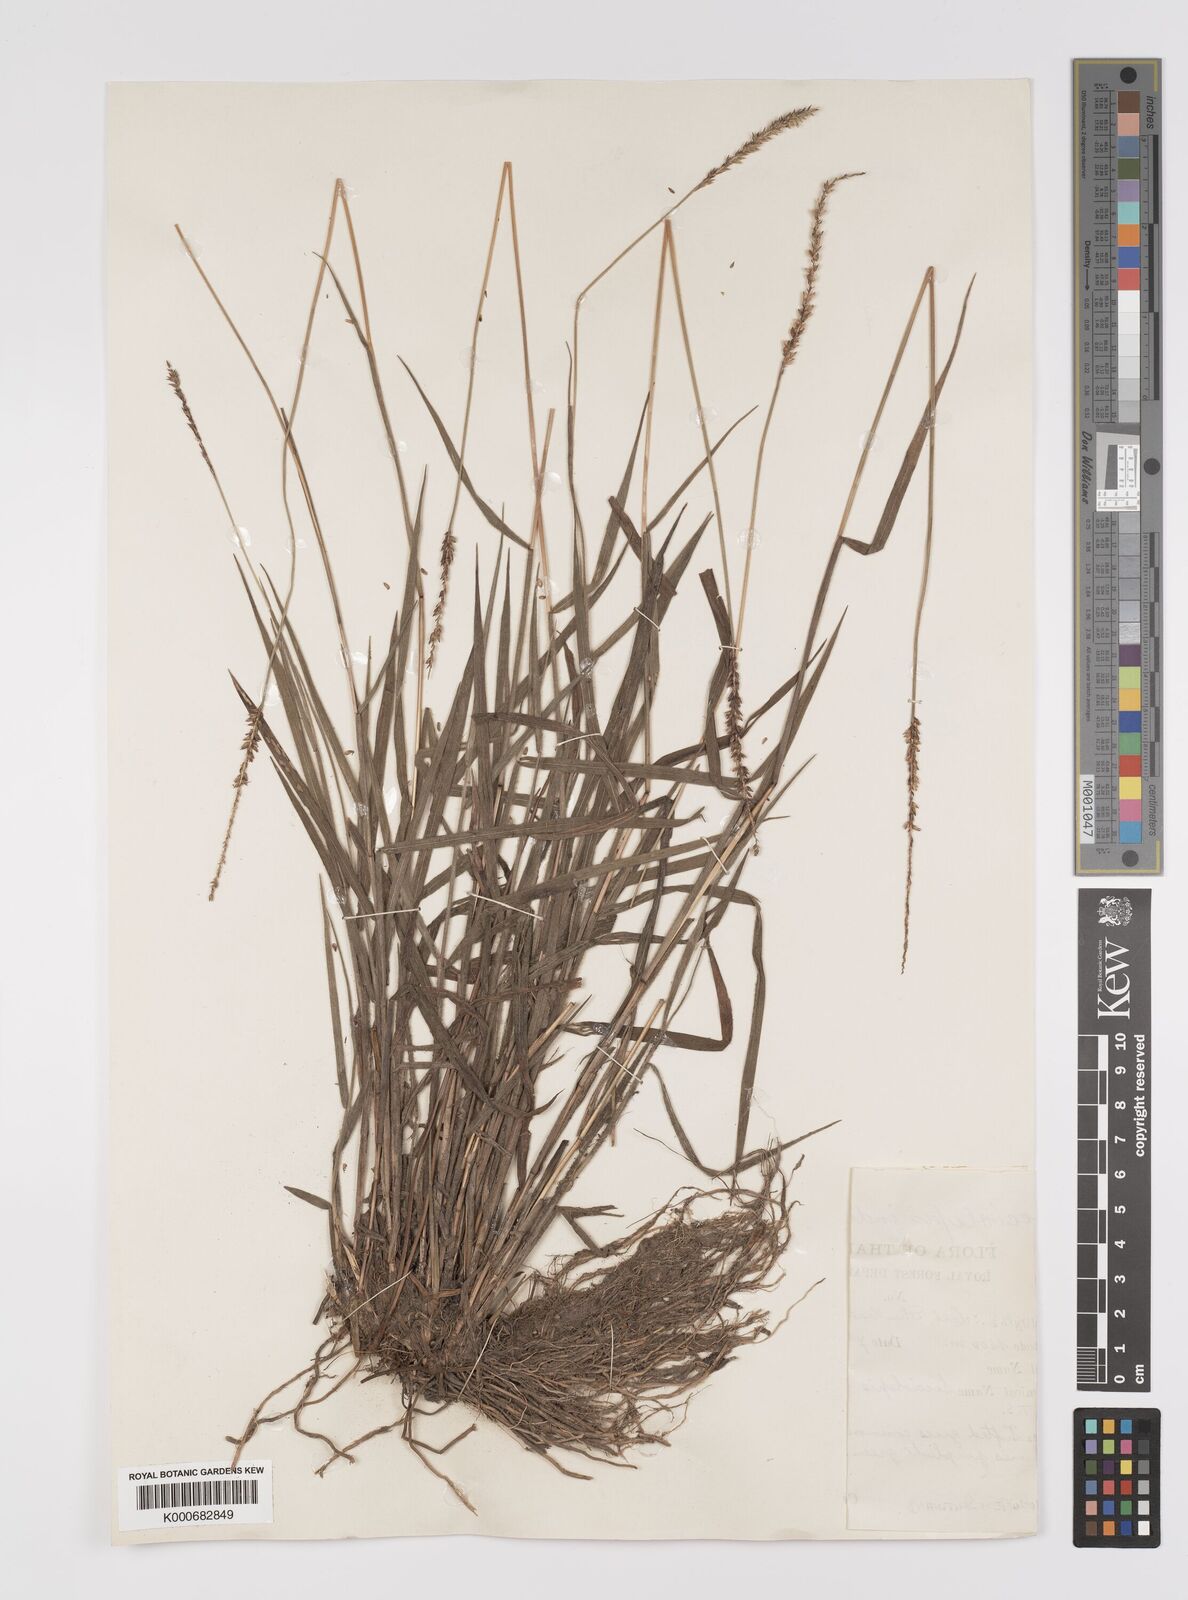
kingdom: Plantae
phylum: Tracheophyta
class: Liliopsida
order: Poales
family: Poaceae
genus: Sacciolepis
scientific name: Sacciolepis indica
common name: Glenwoodgrass
